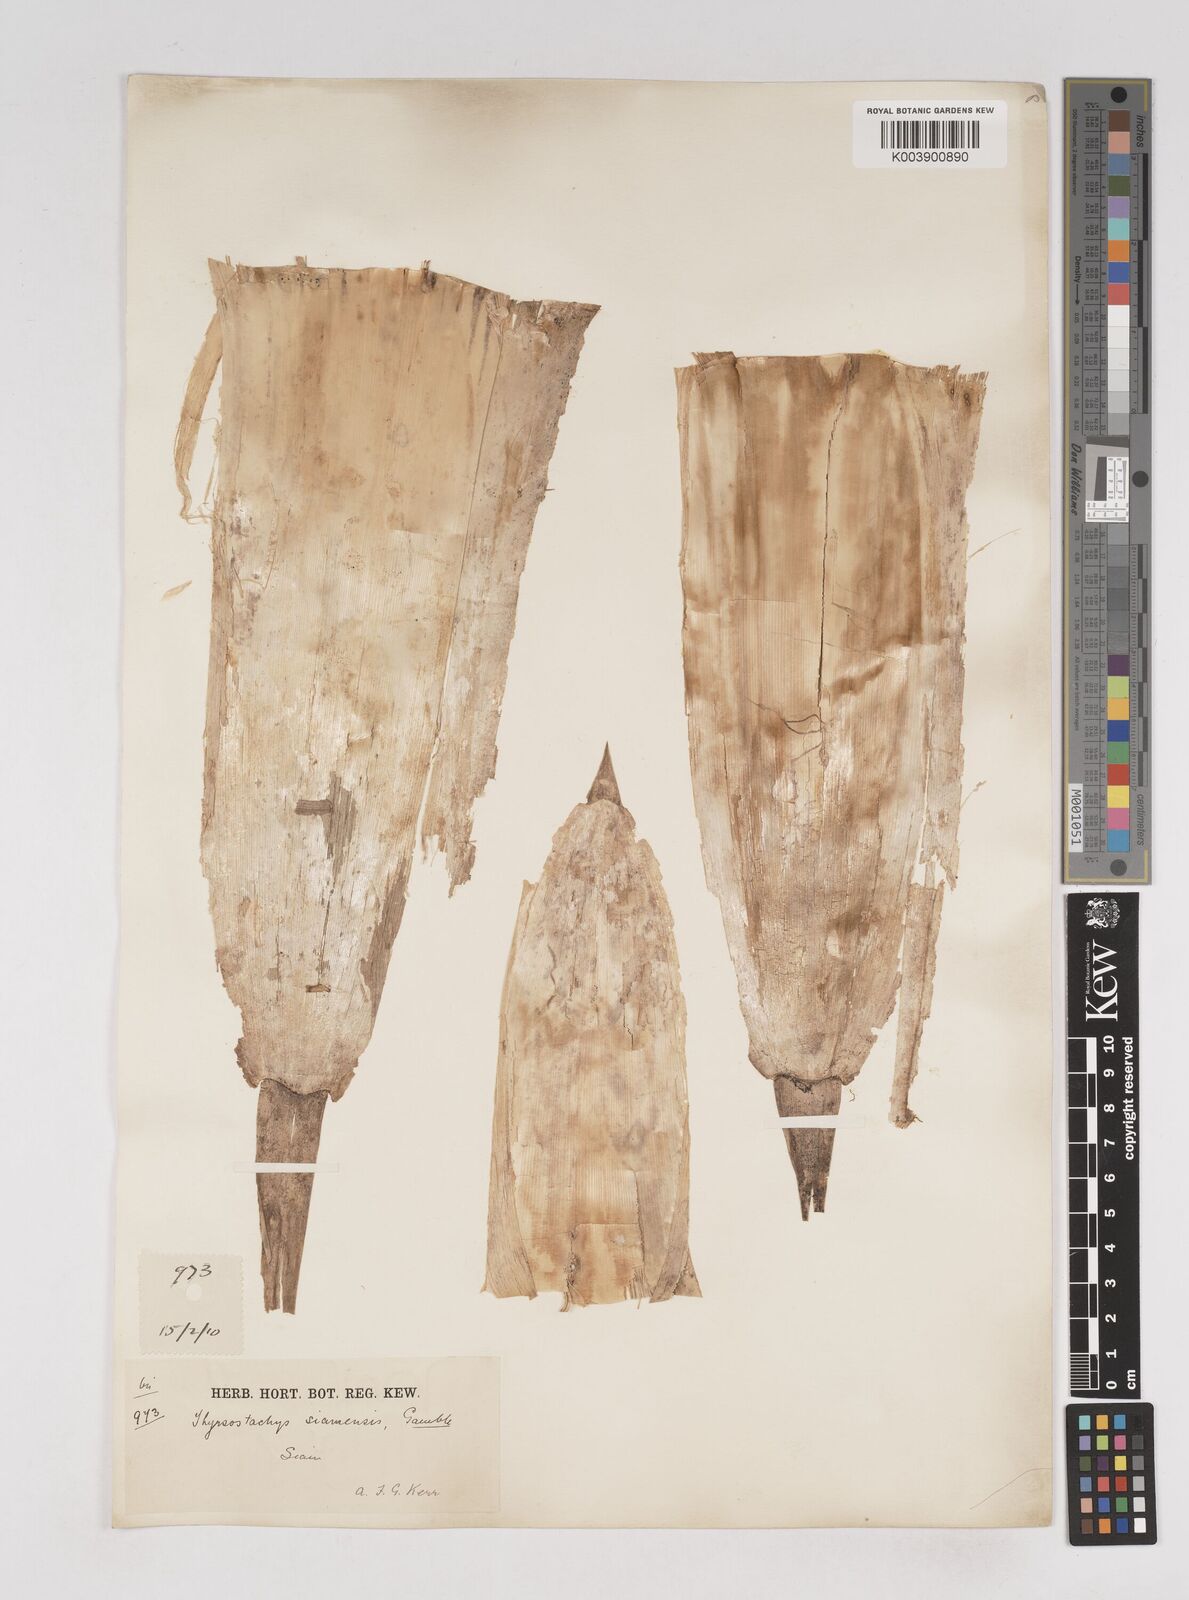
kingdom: Plantae
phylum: Tracheophyta
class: Liliopsida
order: Poales
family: Poaceae
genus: Thyrsostachys
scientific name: Thyrsostachys siamensis
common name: Thailand bamboo
